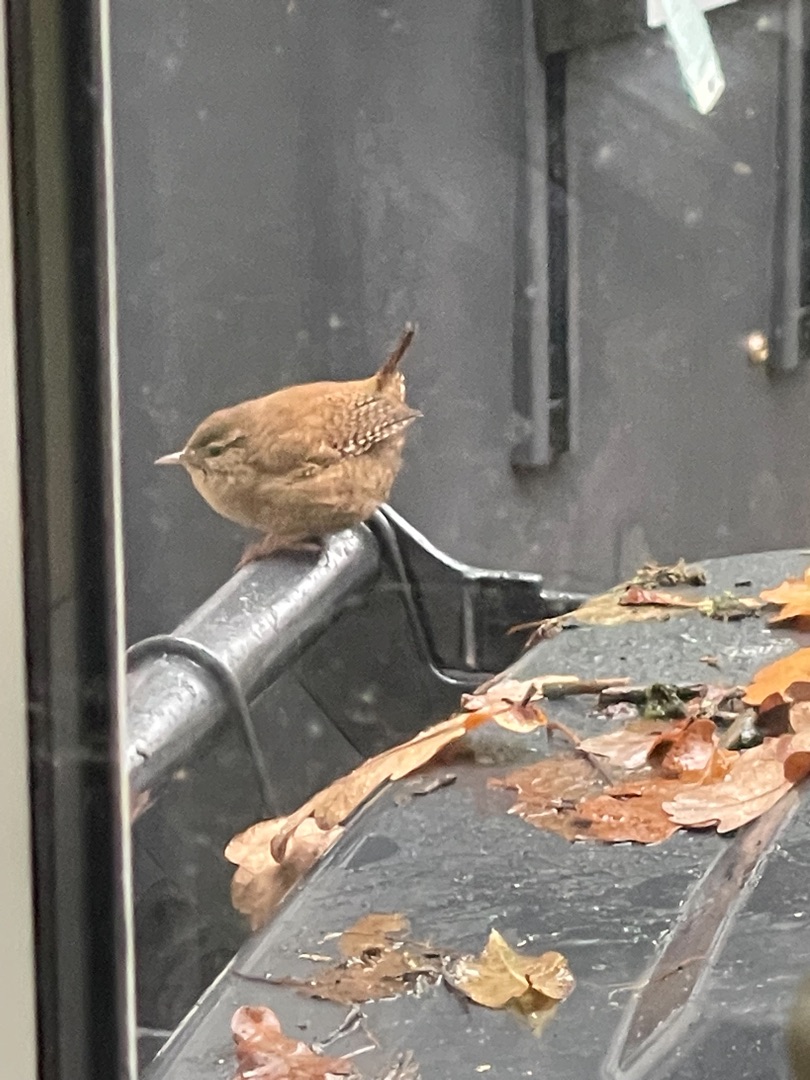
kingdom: Animalia
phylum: Chordata
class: Aves
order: Passeriformes
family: Troglodytidae
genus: Troglodytes
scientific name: Troglodytes troglodytes
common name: Gærdesmutte
